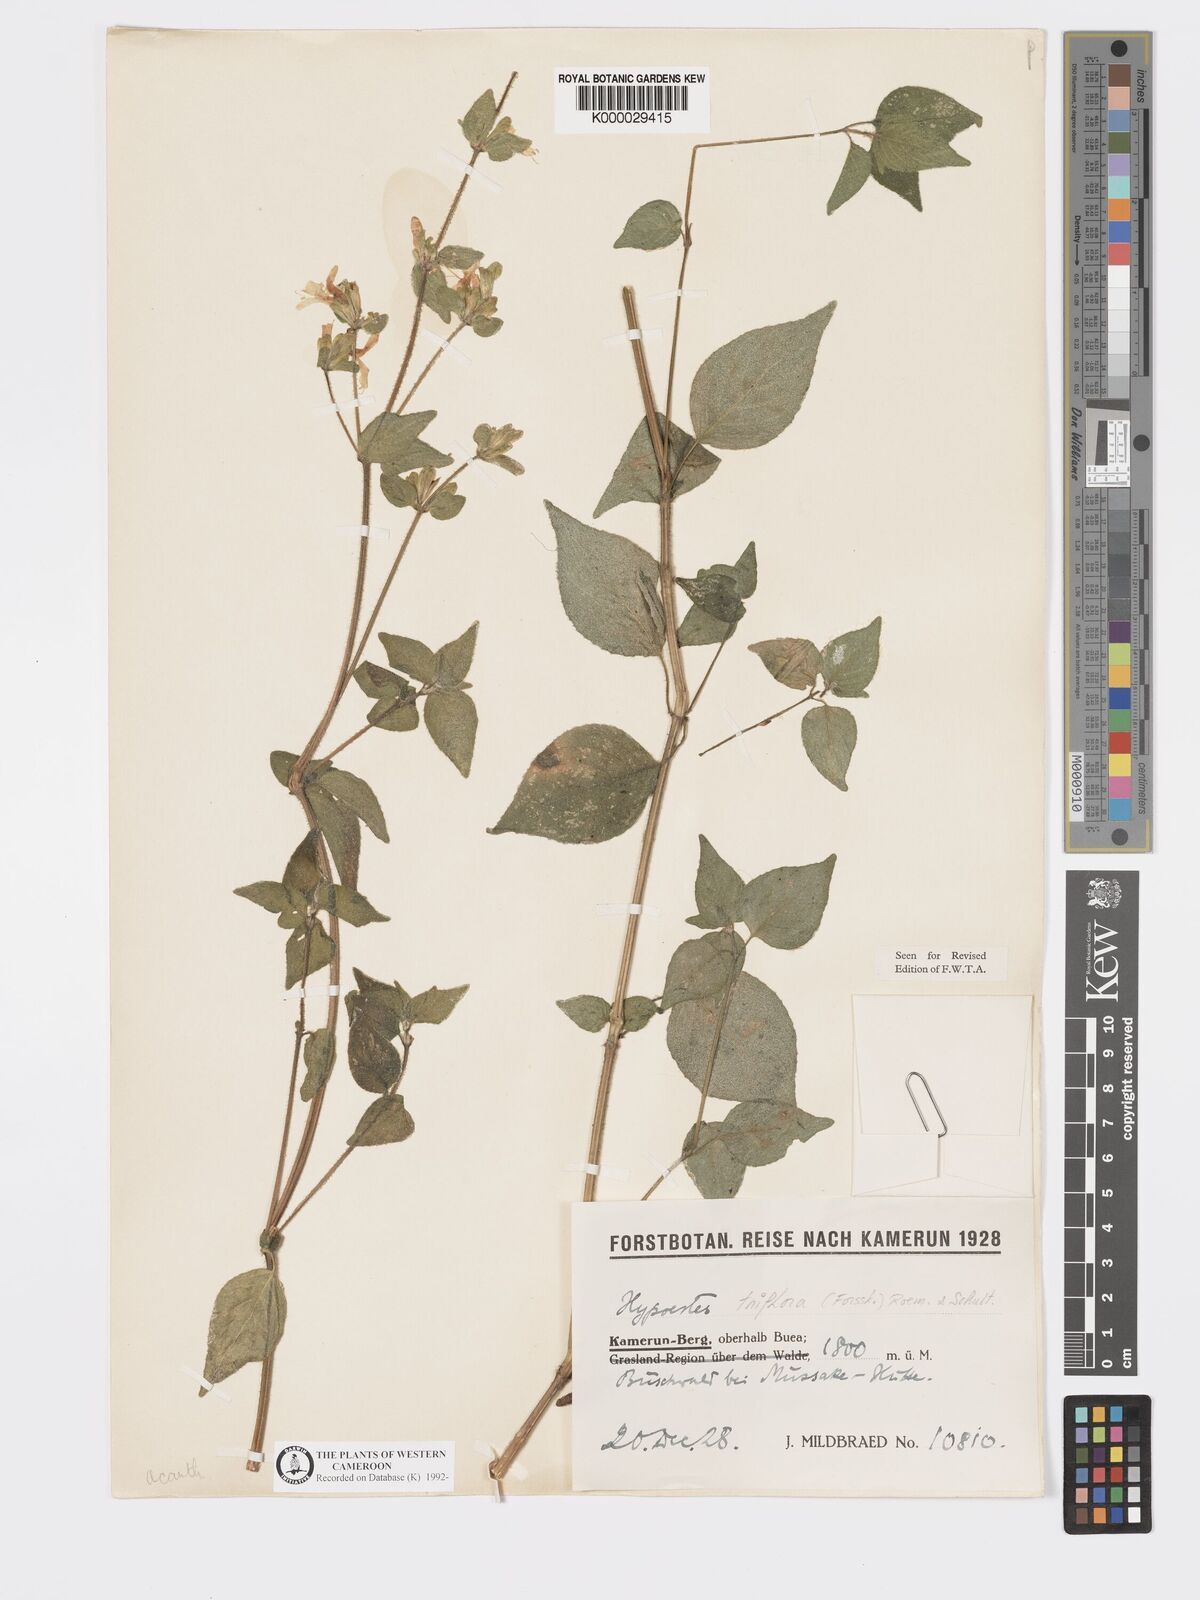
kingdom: Plantae
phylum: Tracheophyta
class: Magnoliopsida
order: Lamiales
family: Acanthaceae
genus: Hypoestes
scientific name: Hypoestes triflora
